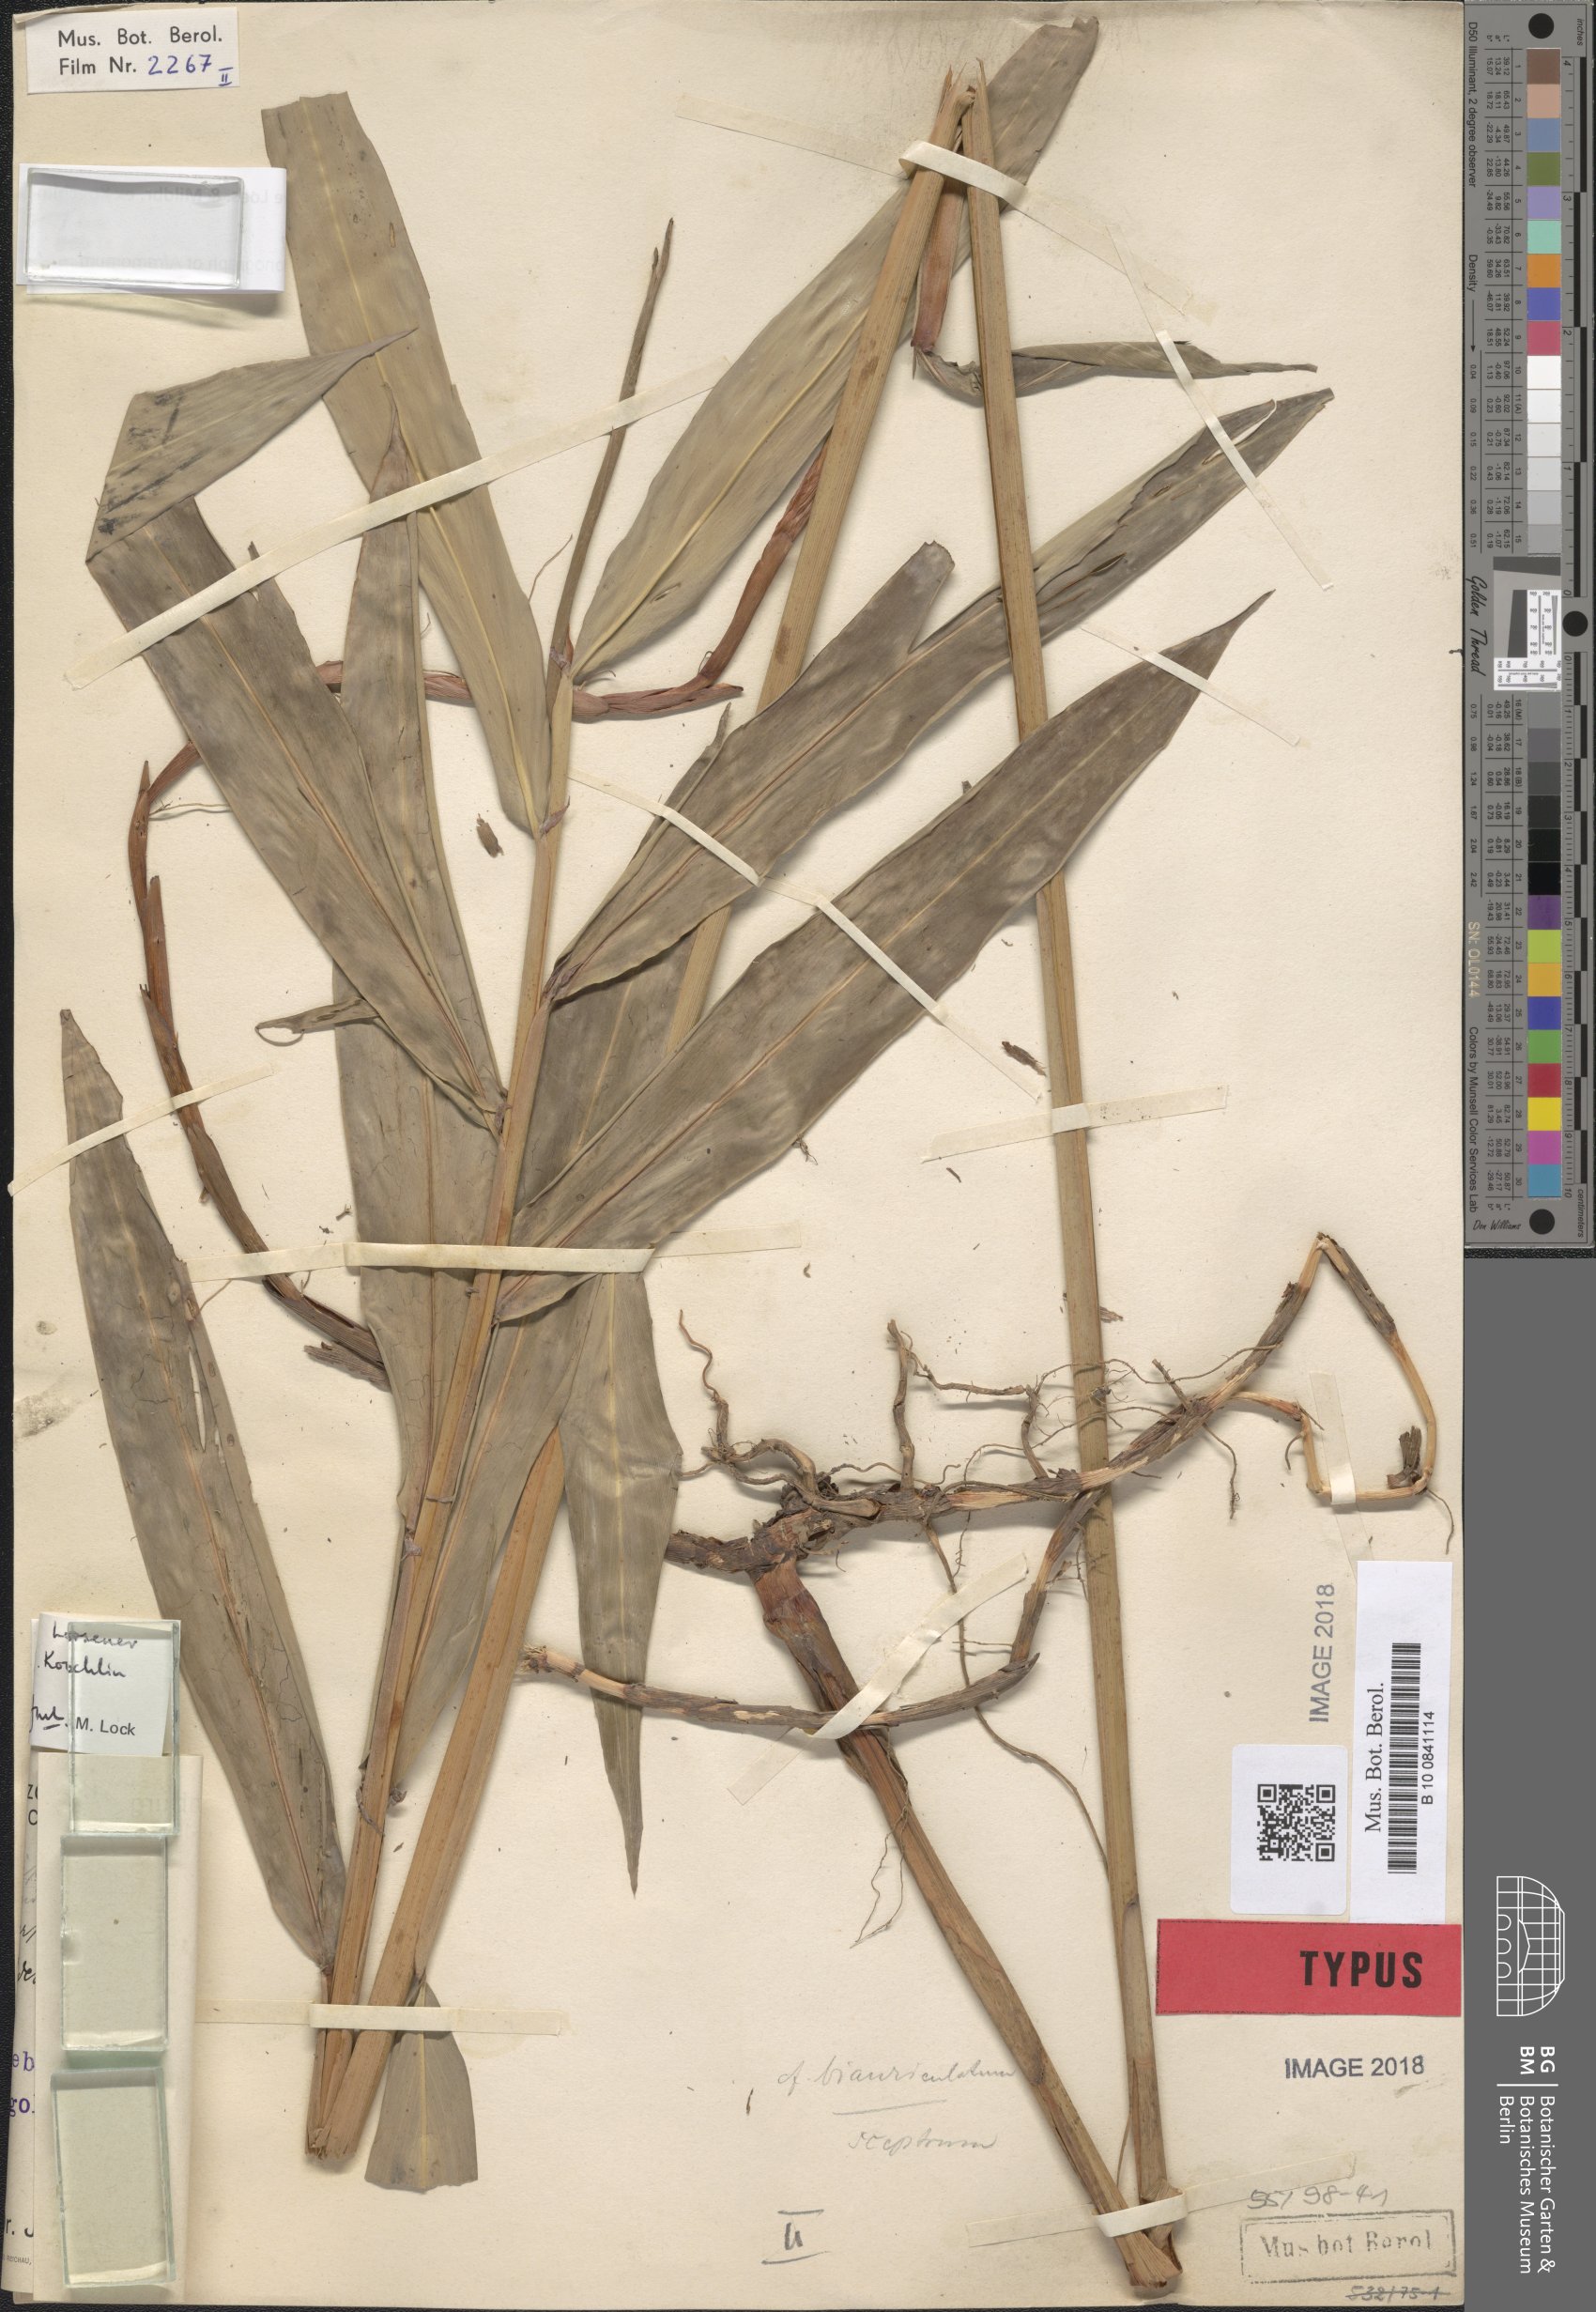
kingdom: Plantae
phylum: Tracheophyta
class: Liliopsida
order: Zingiberales
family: Zingiberaceae
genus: Aframomum
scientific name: Aframomum pseudostipulare
